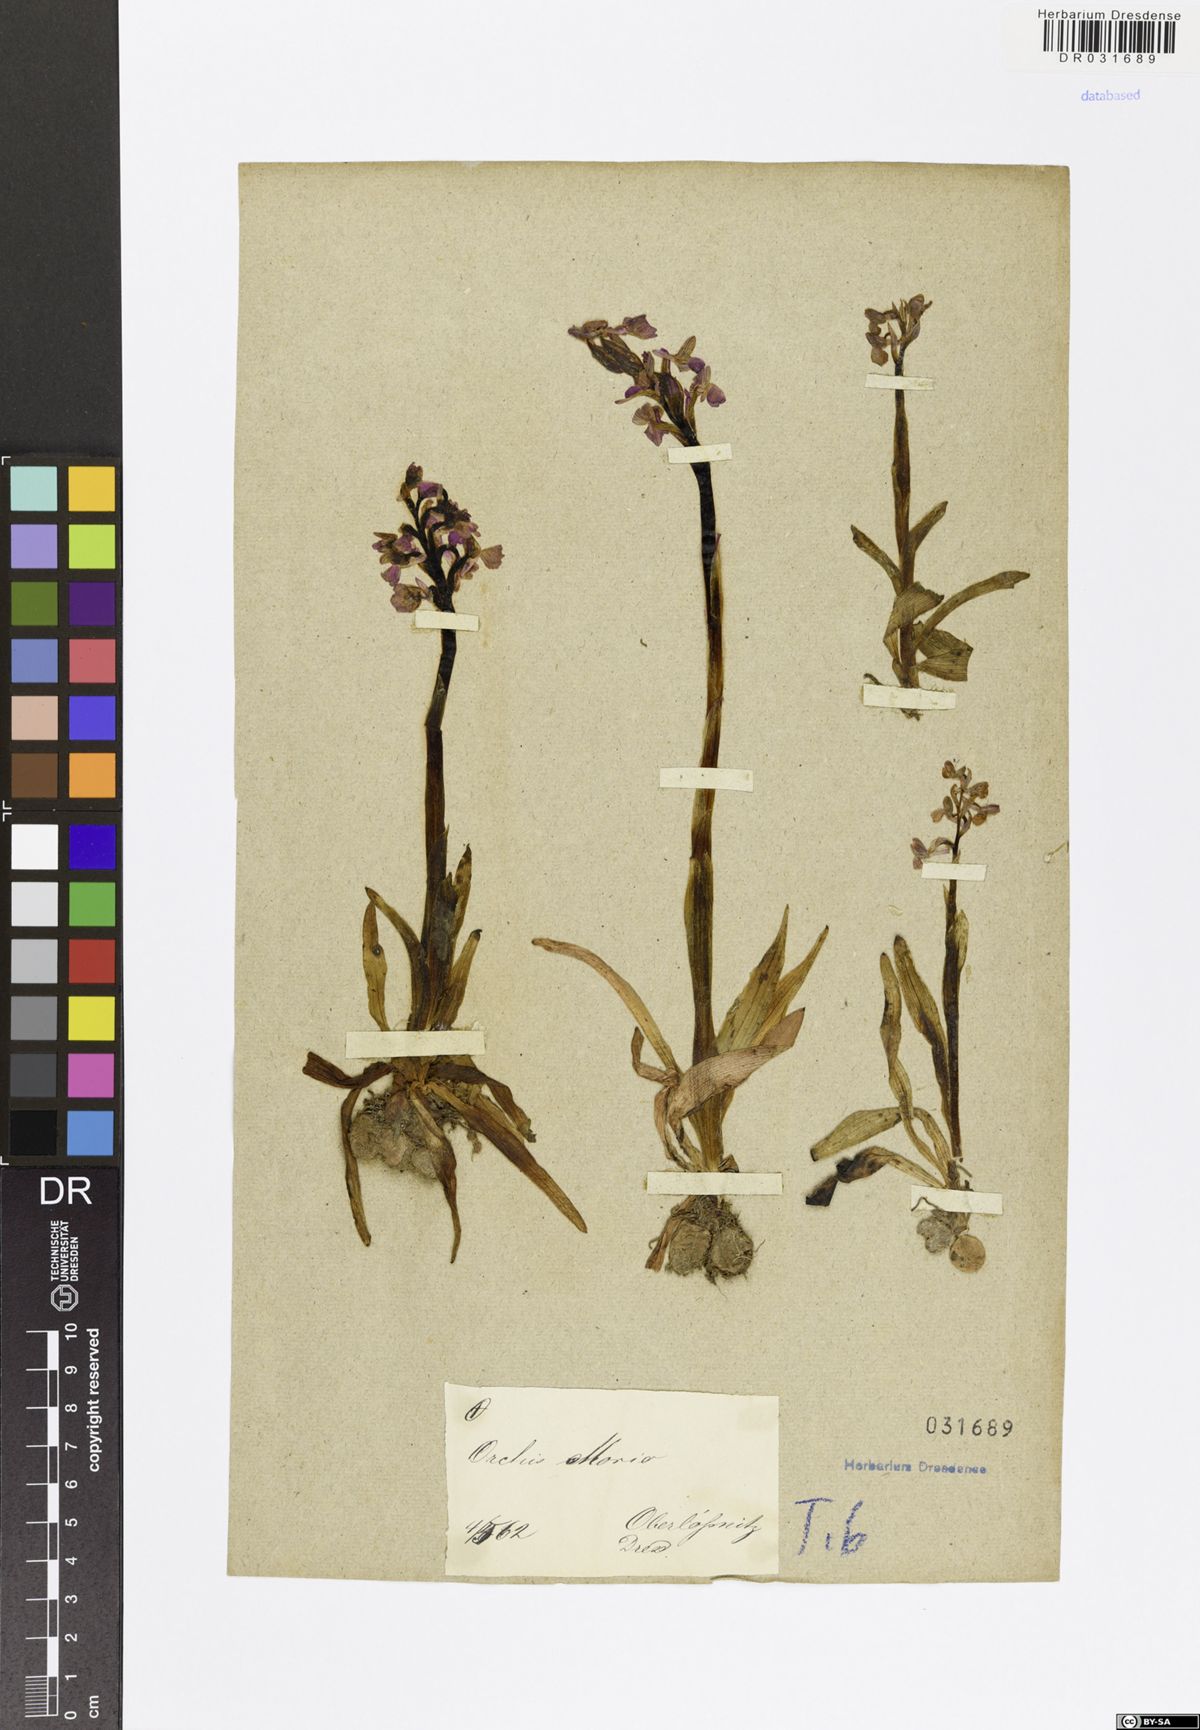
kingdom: Plantae
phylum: Tracheophyta
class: Liliopsida
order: Asparagales
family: Orchidaceae
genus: Anacamptis
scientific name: Anacamptis morio
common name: Green-winged orchid
